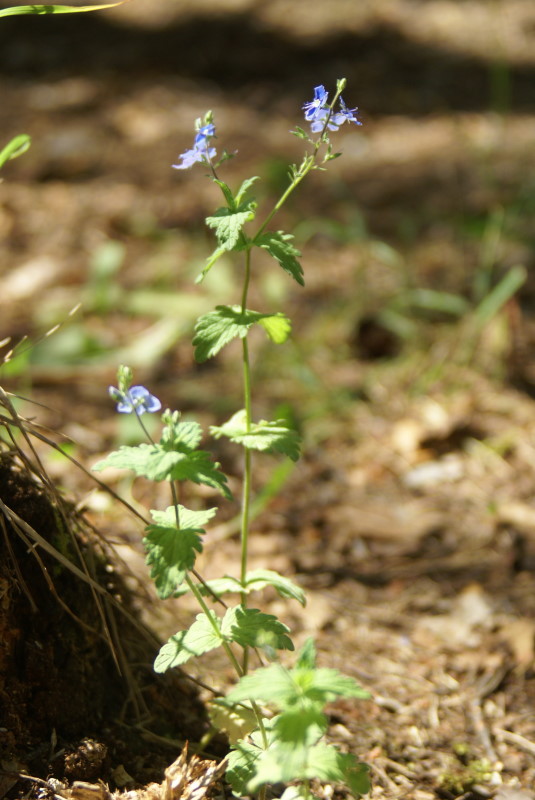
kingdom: Plantae
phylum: Tracheophyta
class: Magnoliopsida
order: Lamiales
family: Plantaginaceae
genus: Veronica
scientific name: Veronica vindobonensis
